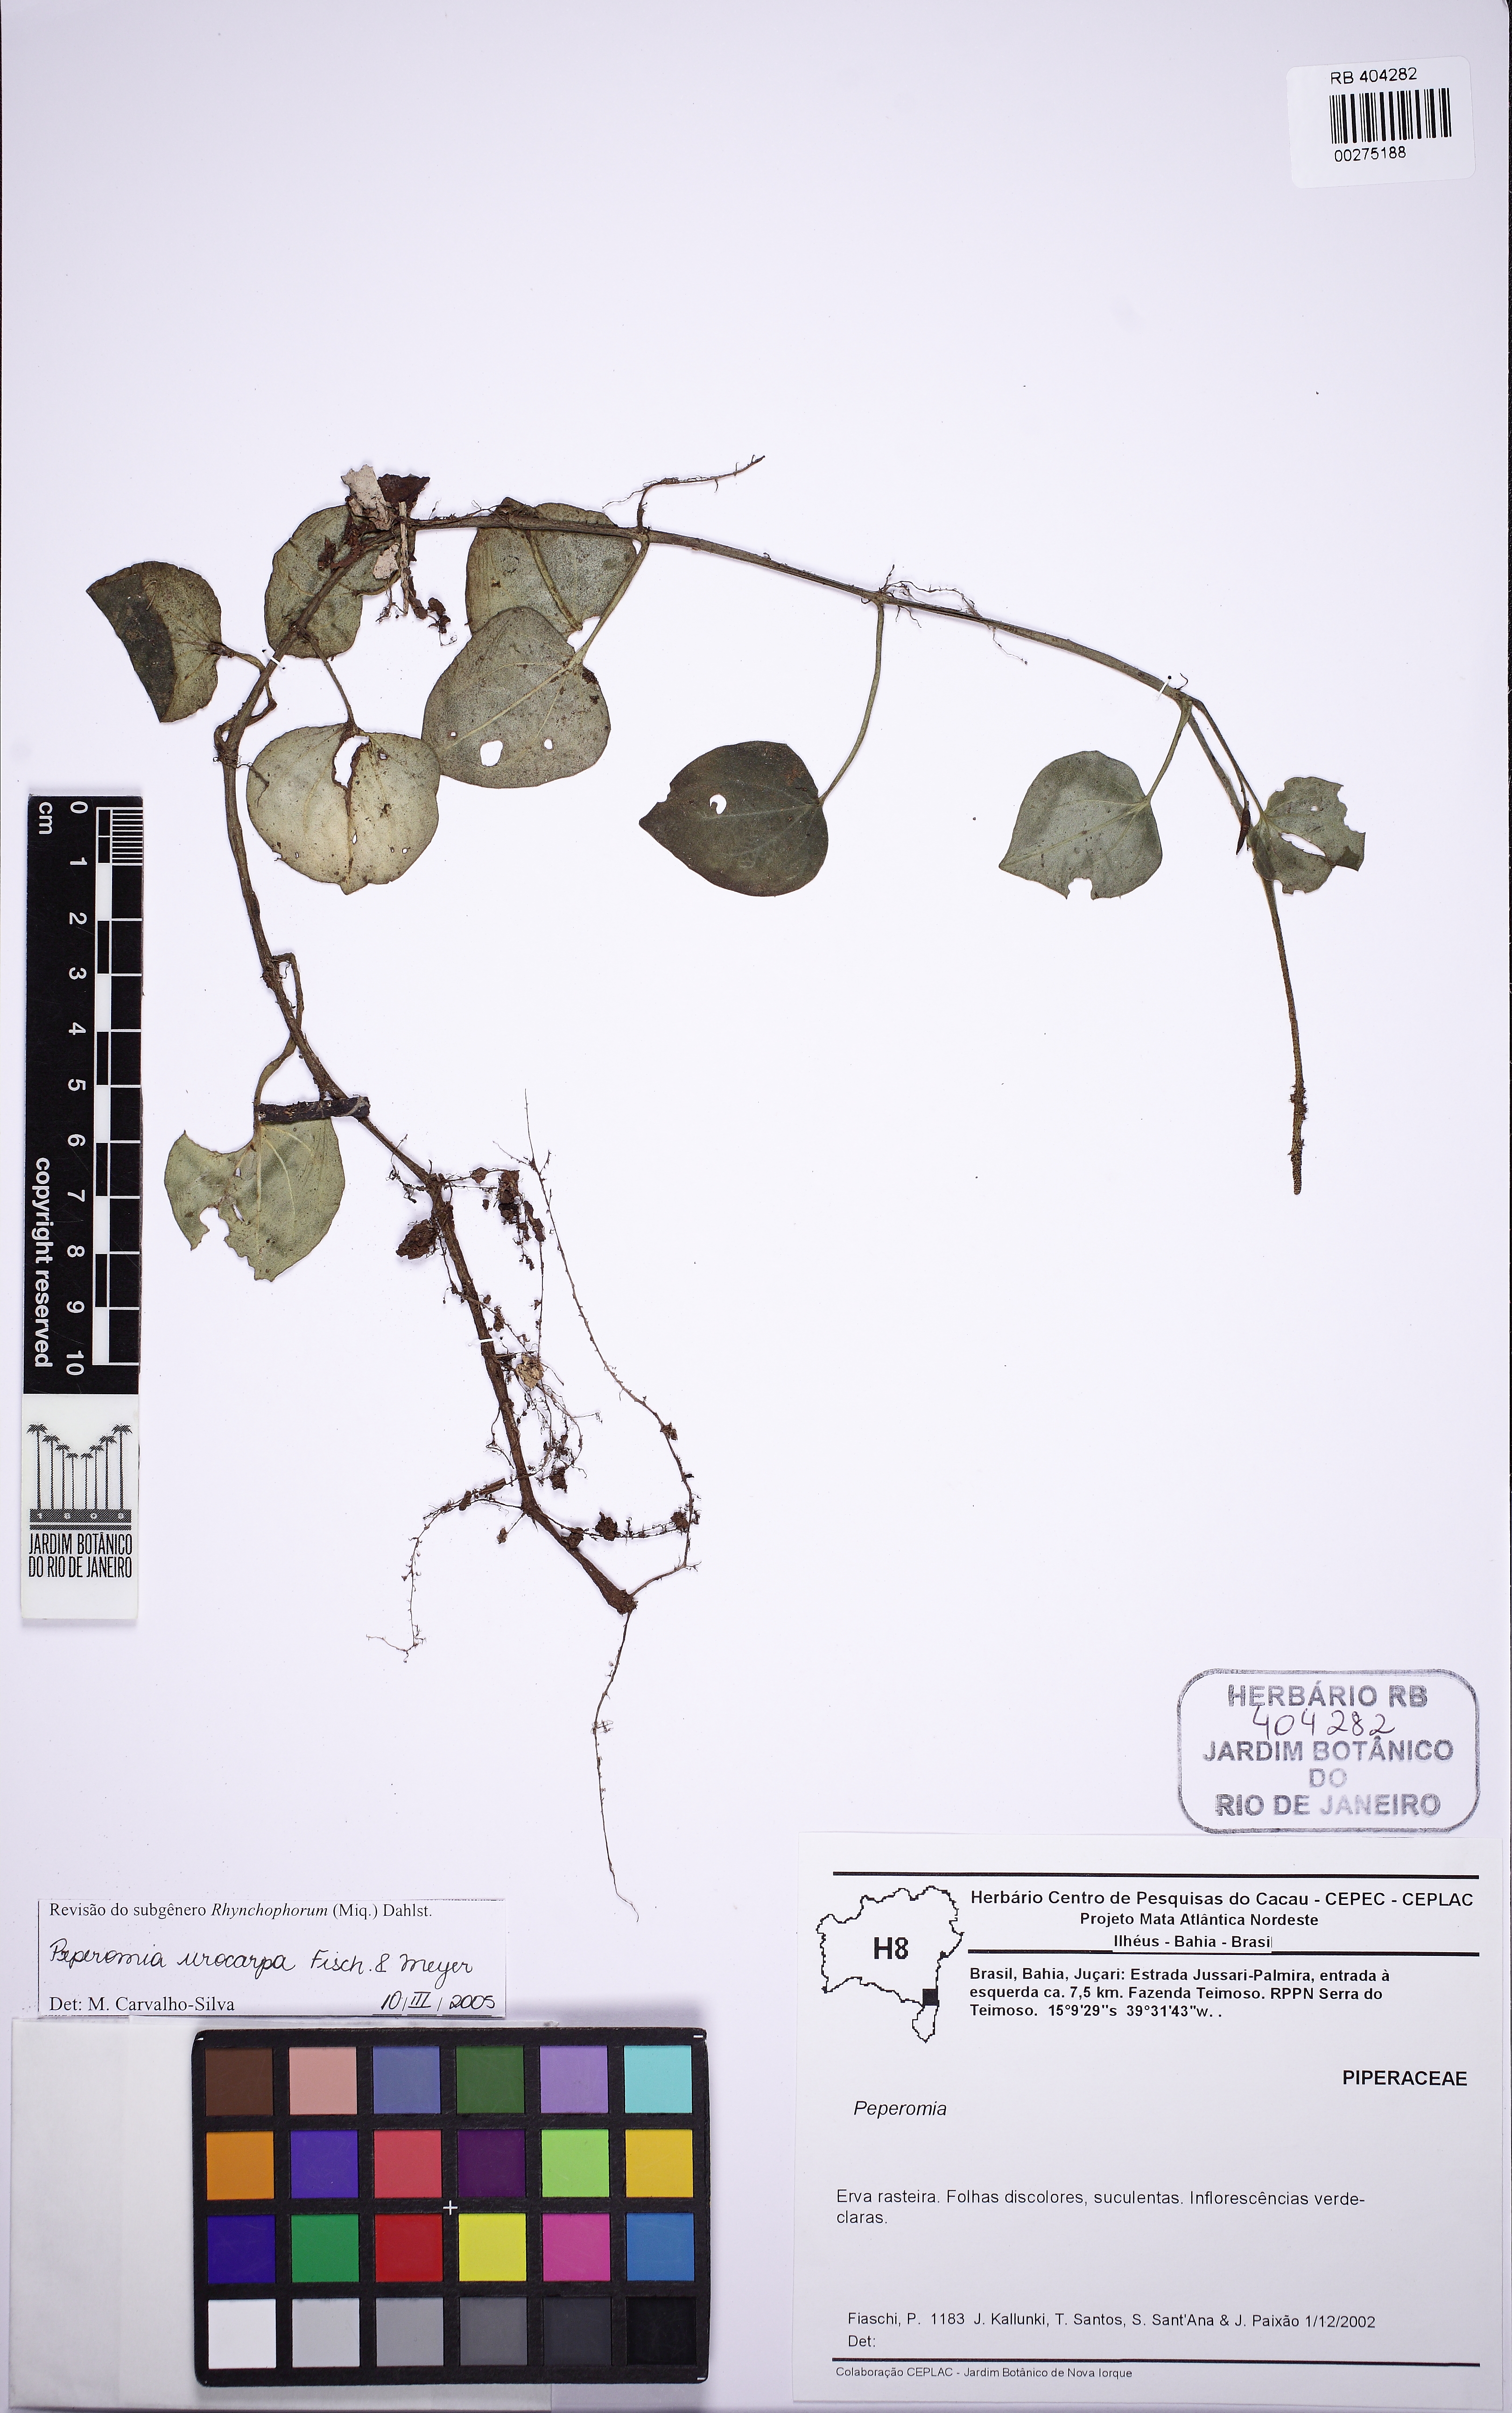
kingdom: Plantae
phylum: Tracheophyta
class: Magnoliopsida
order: Piperales
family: Piperaceae
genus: Peperomia
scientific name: Peperomia urocarpa
